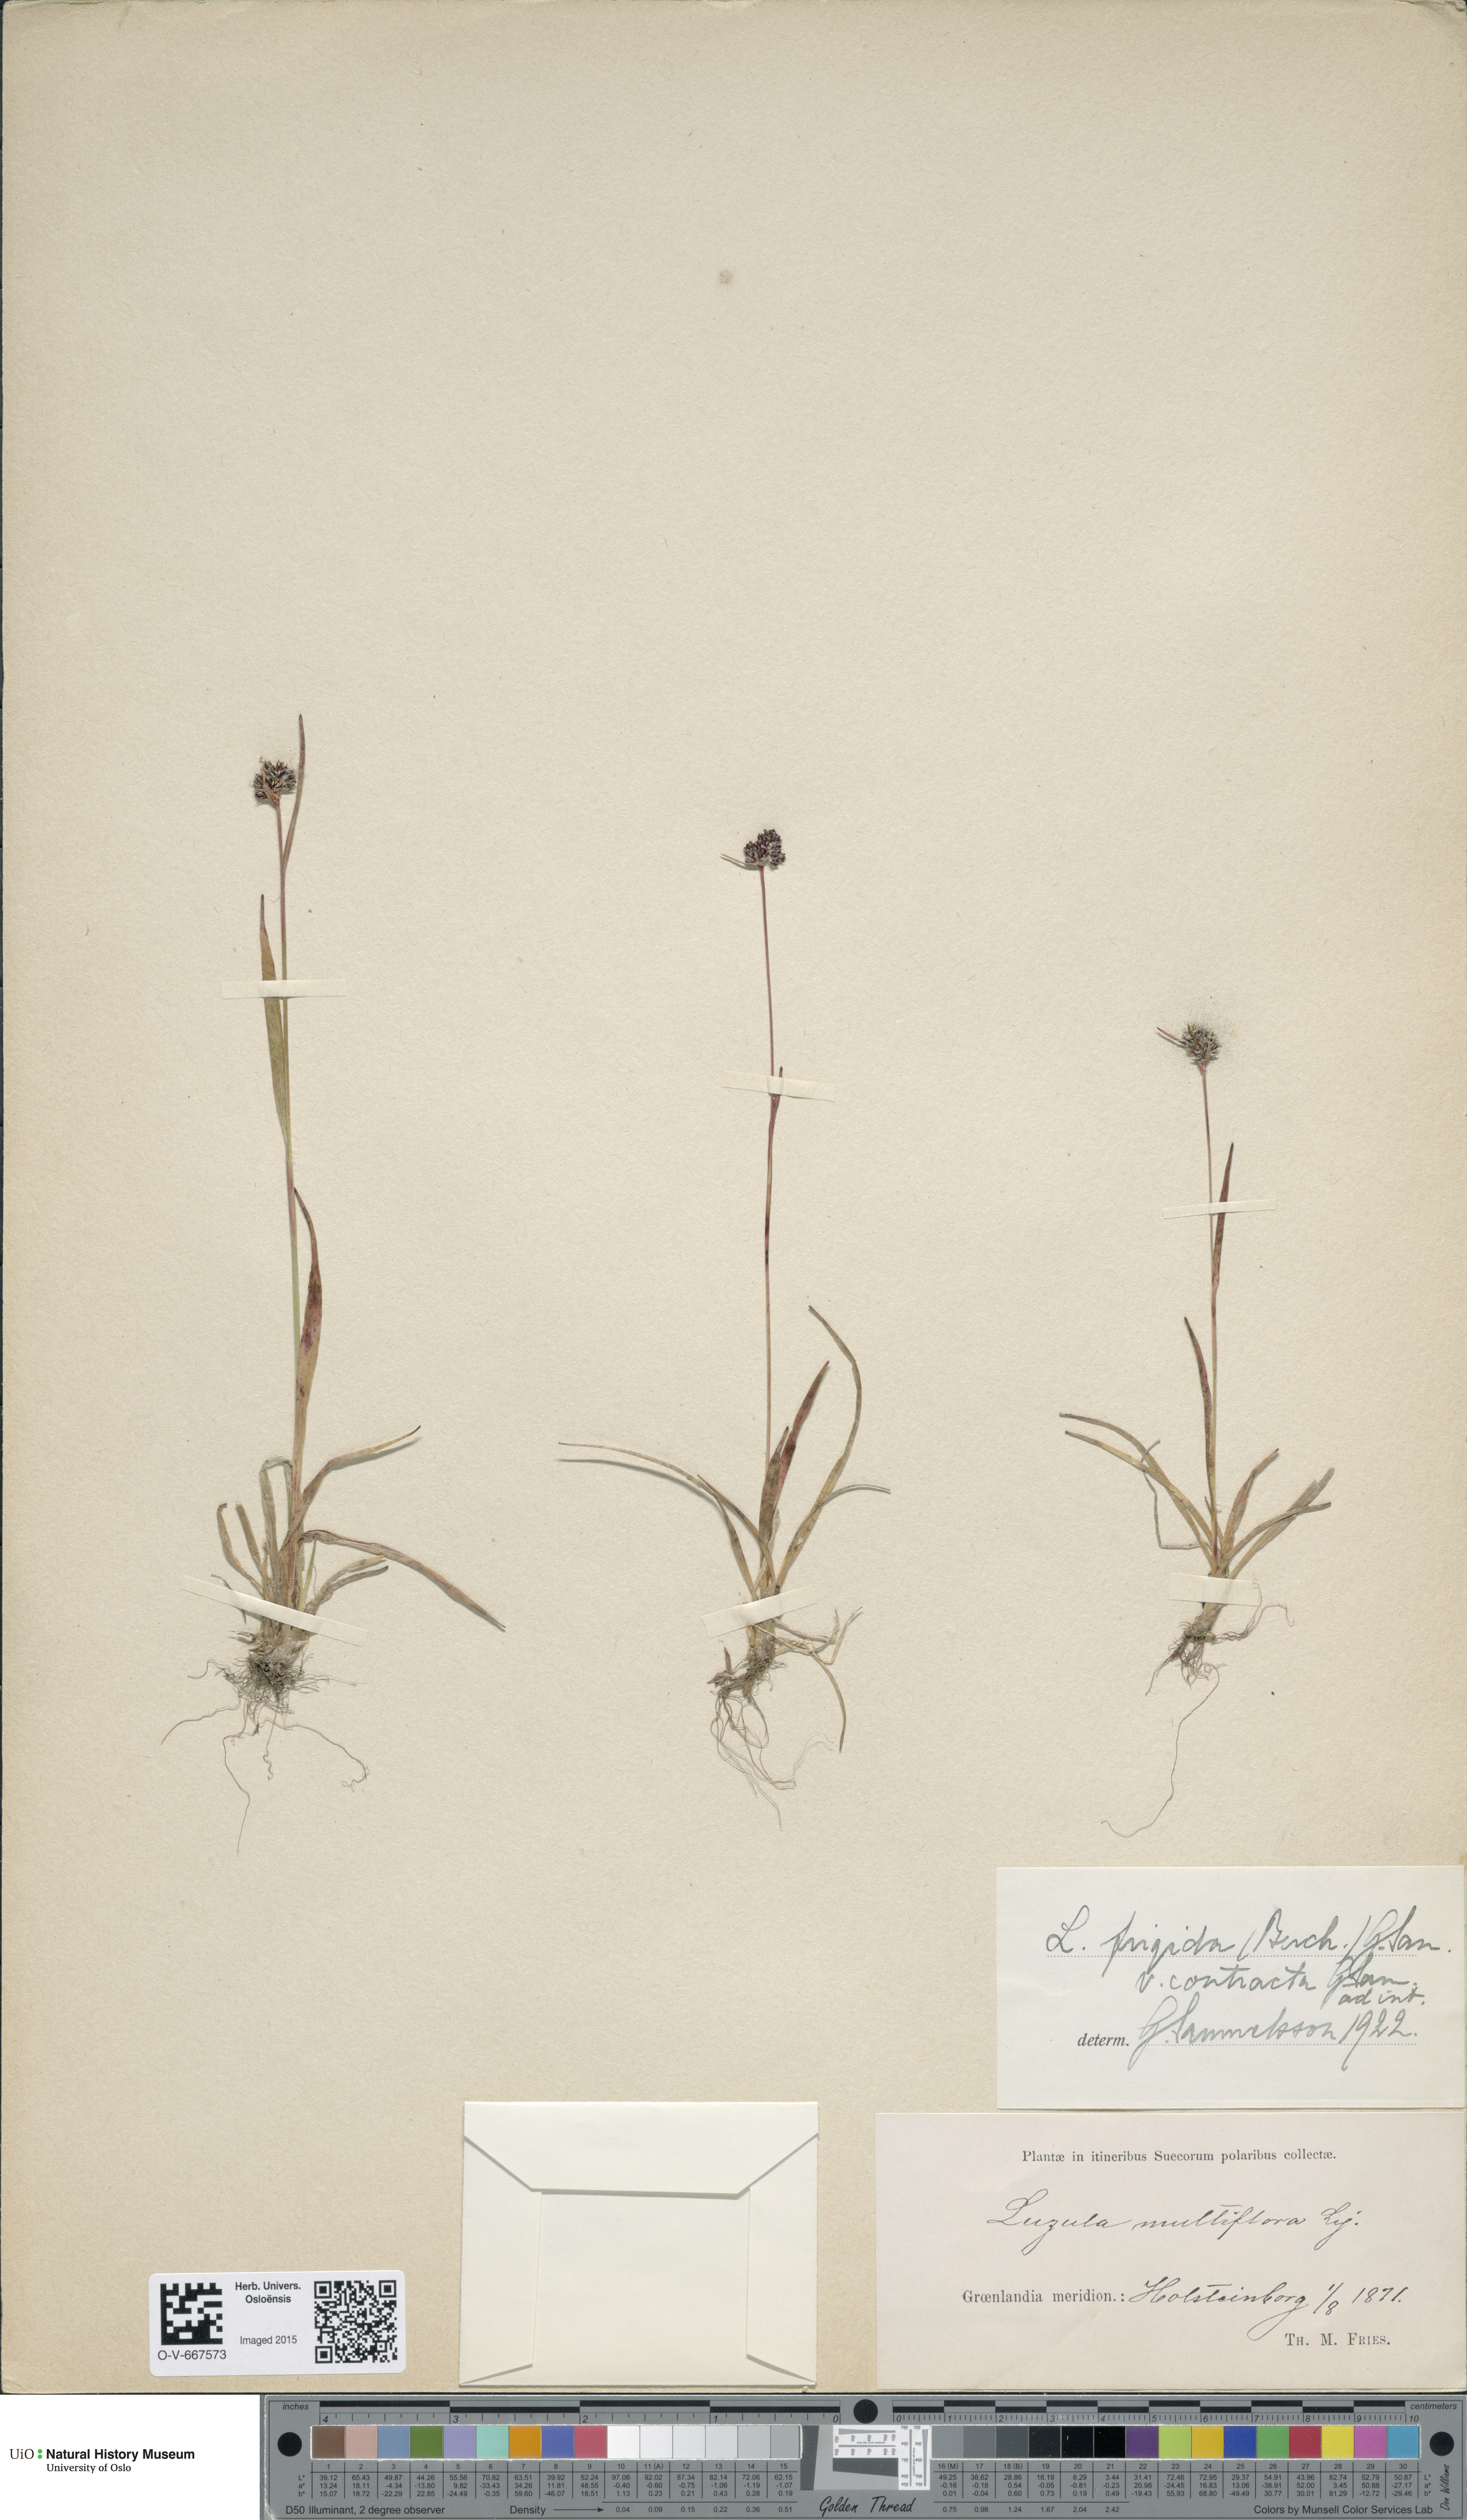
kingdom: Plantae
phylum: Tracheophyta
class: Liliopsida
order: Poales
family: Juncaceae
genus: Luzula
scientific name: Luzula multiflora
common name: Heath wood-rush
